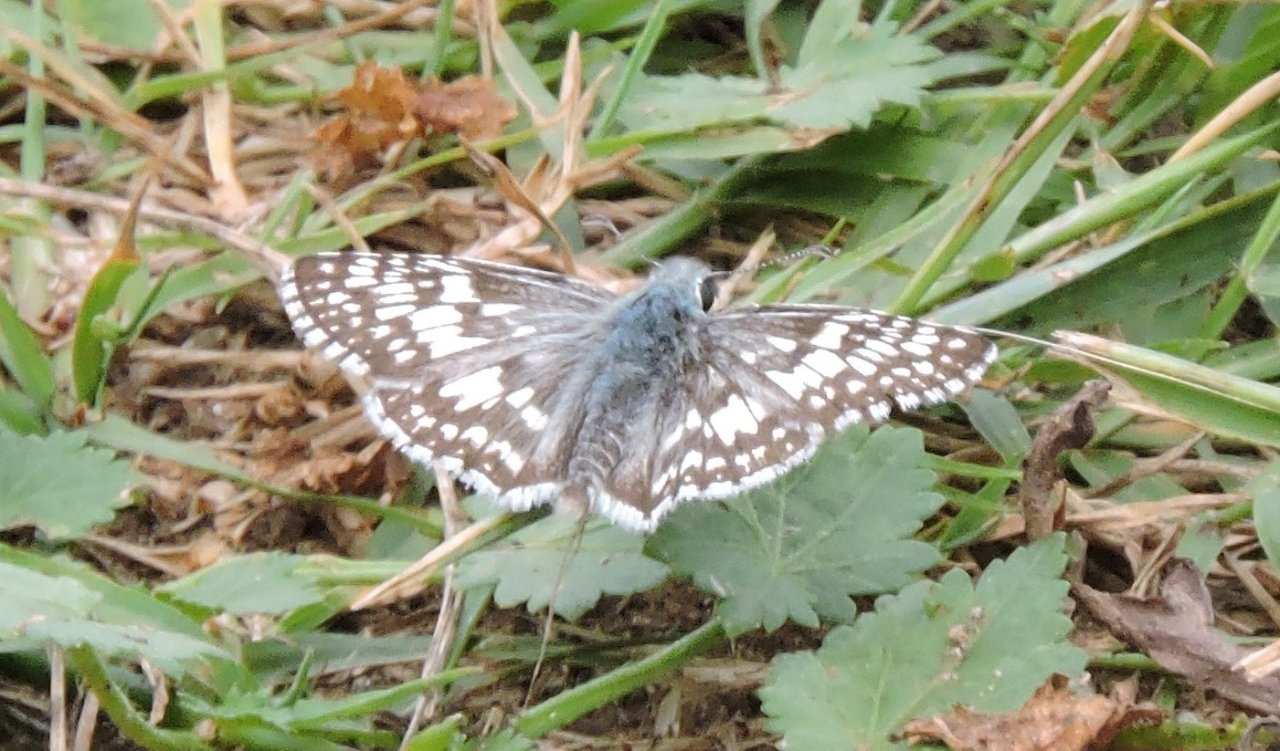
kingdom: Animalia
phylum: Arthropoda
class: Insecta
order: Lepidoptera
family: Hesperiidae
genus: Pyrgus
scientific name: Pyrgus communis
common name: White Checkered-Skipper
